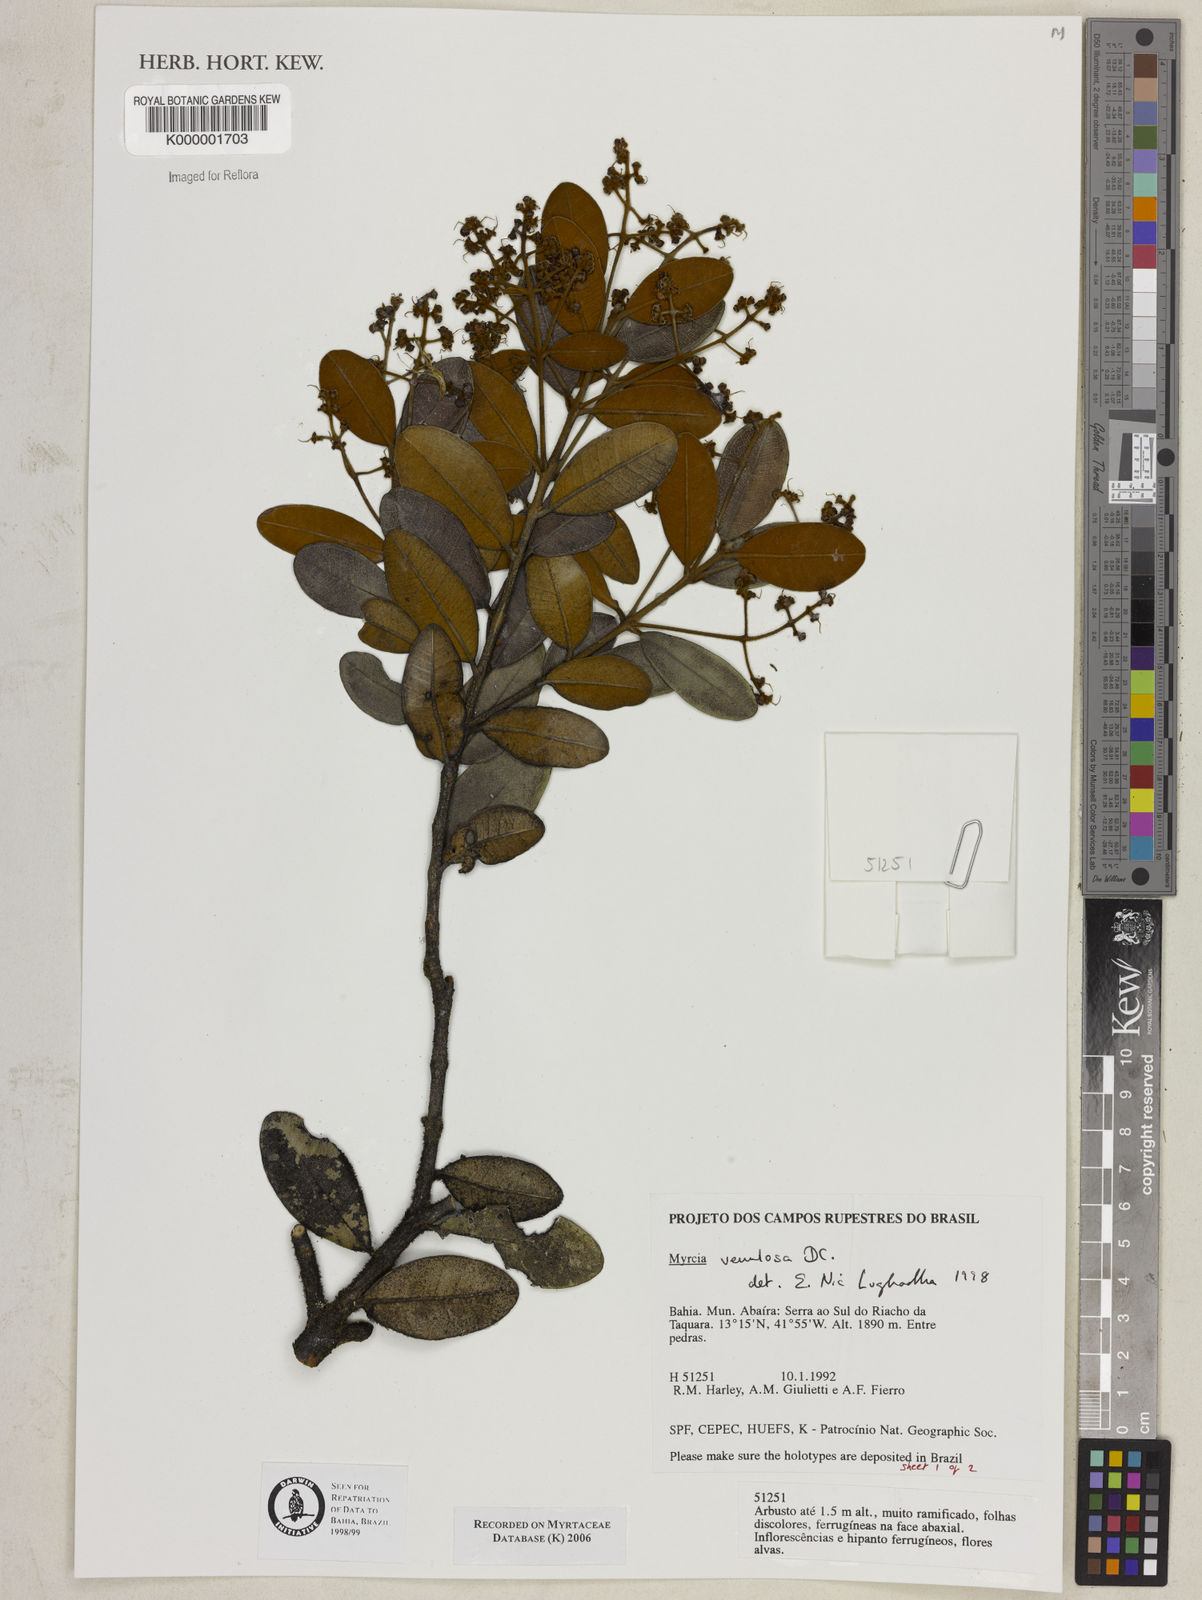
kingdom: Plantae
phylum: Tracheophyta
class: Magnoliopsida
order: Myrtales
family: Myrtaceae
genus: Myrcia
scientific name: Myrcia venulosa
